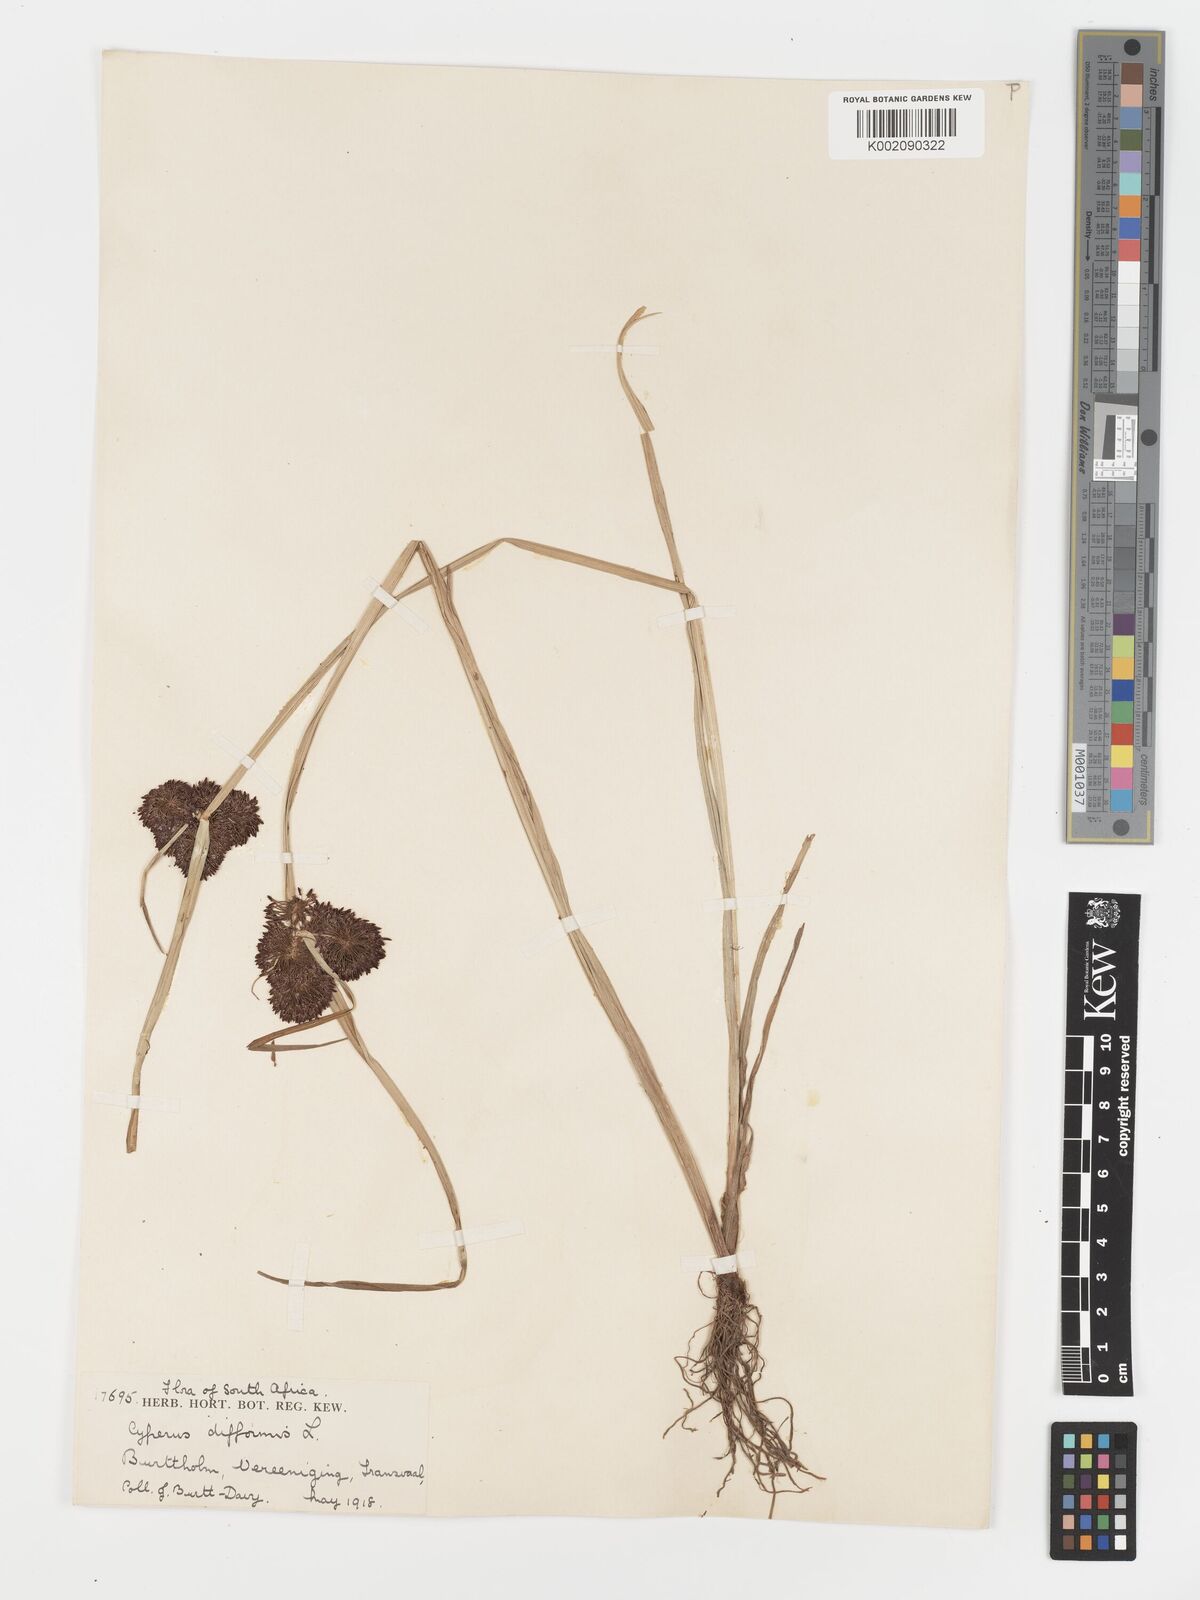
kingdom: Plantae
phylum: Tracheophyta
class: Liliopsida
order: Poales
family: Cyperaceae
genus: Cyperus
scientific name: Cyperus difformis
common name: Variable flatsedge
